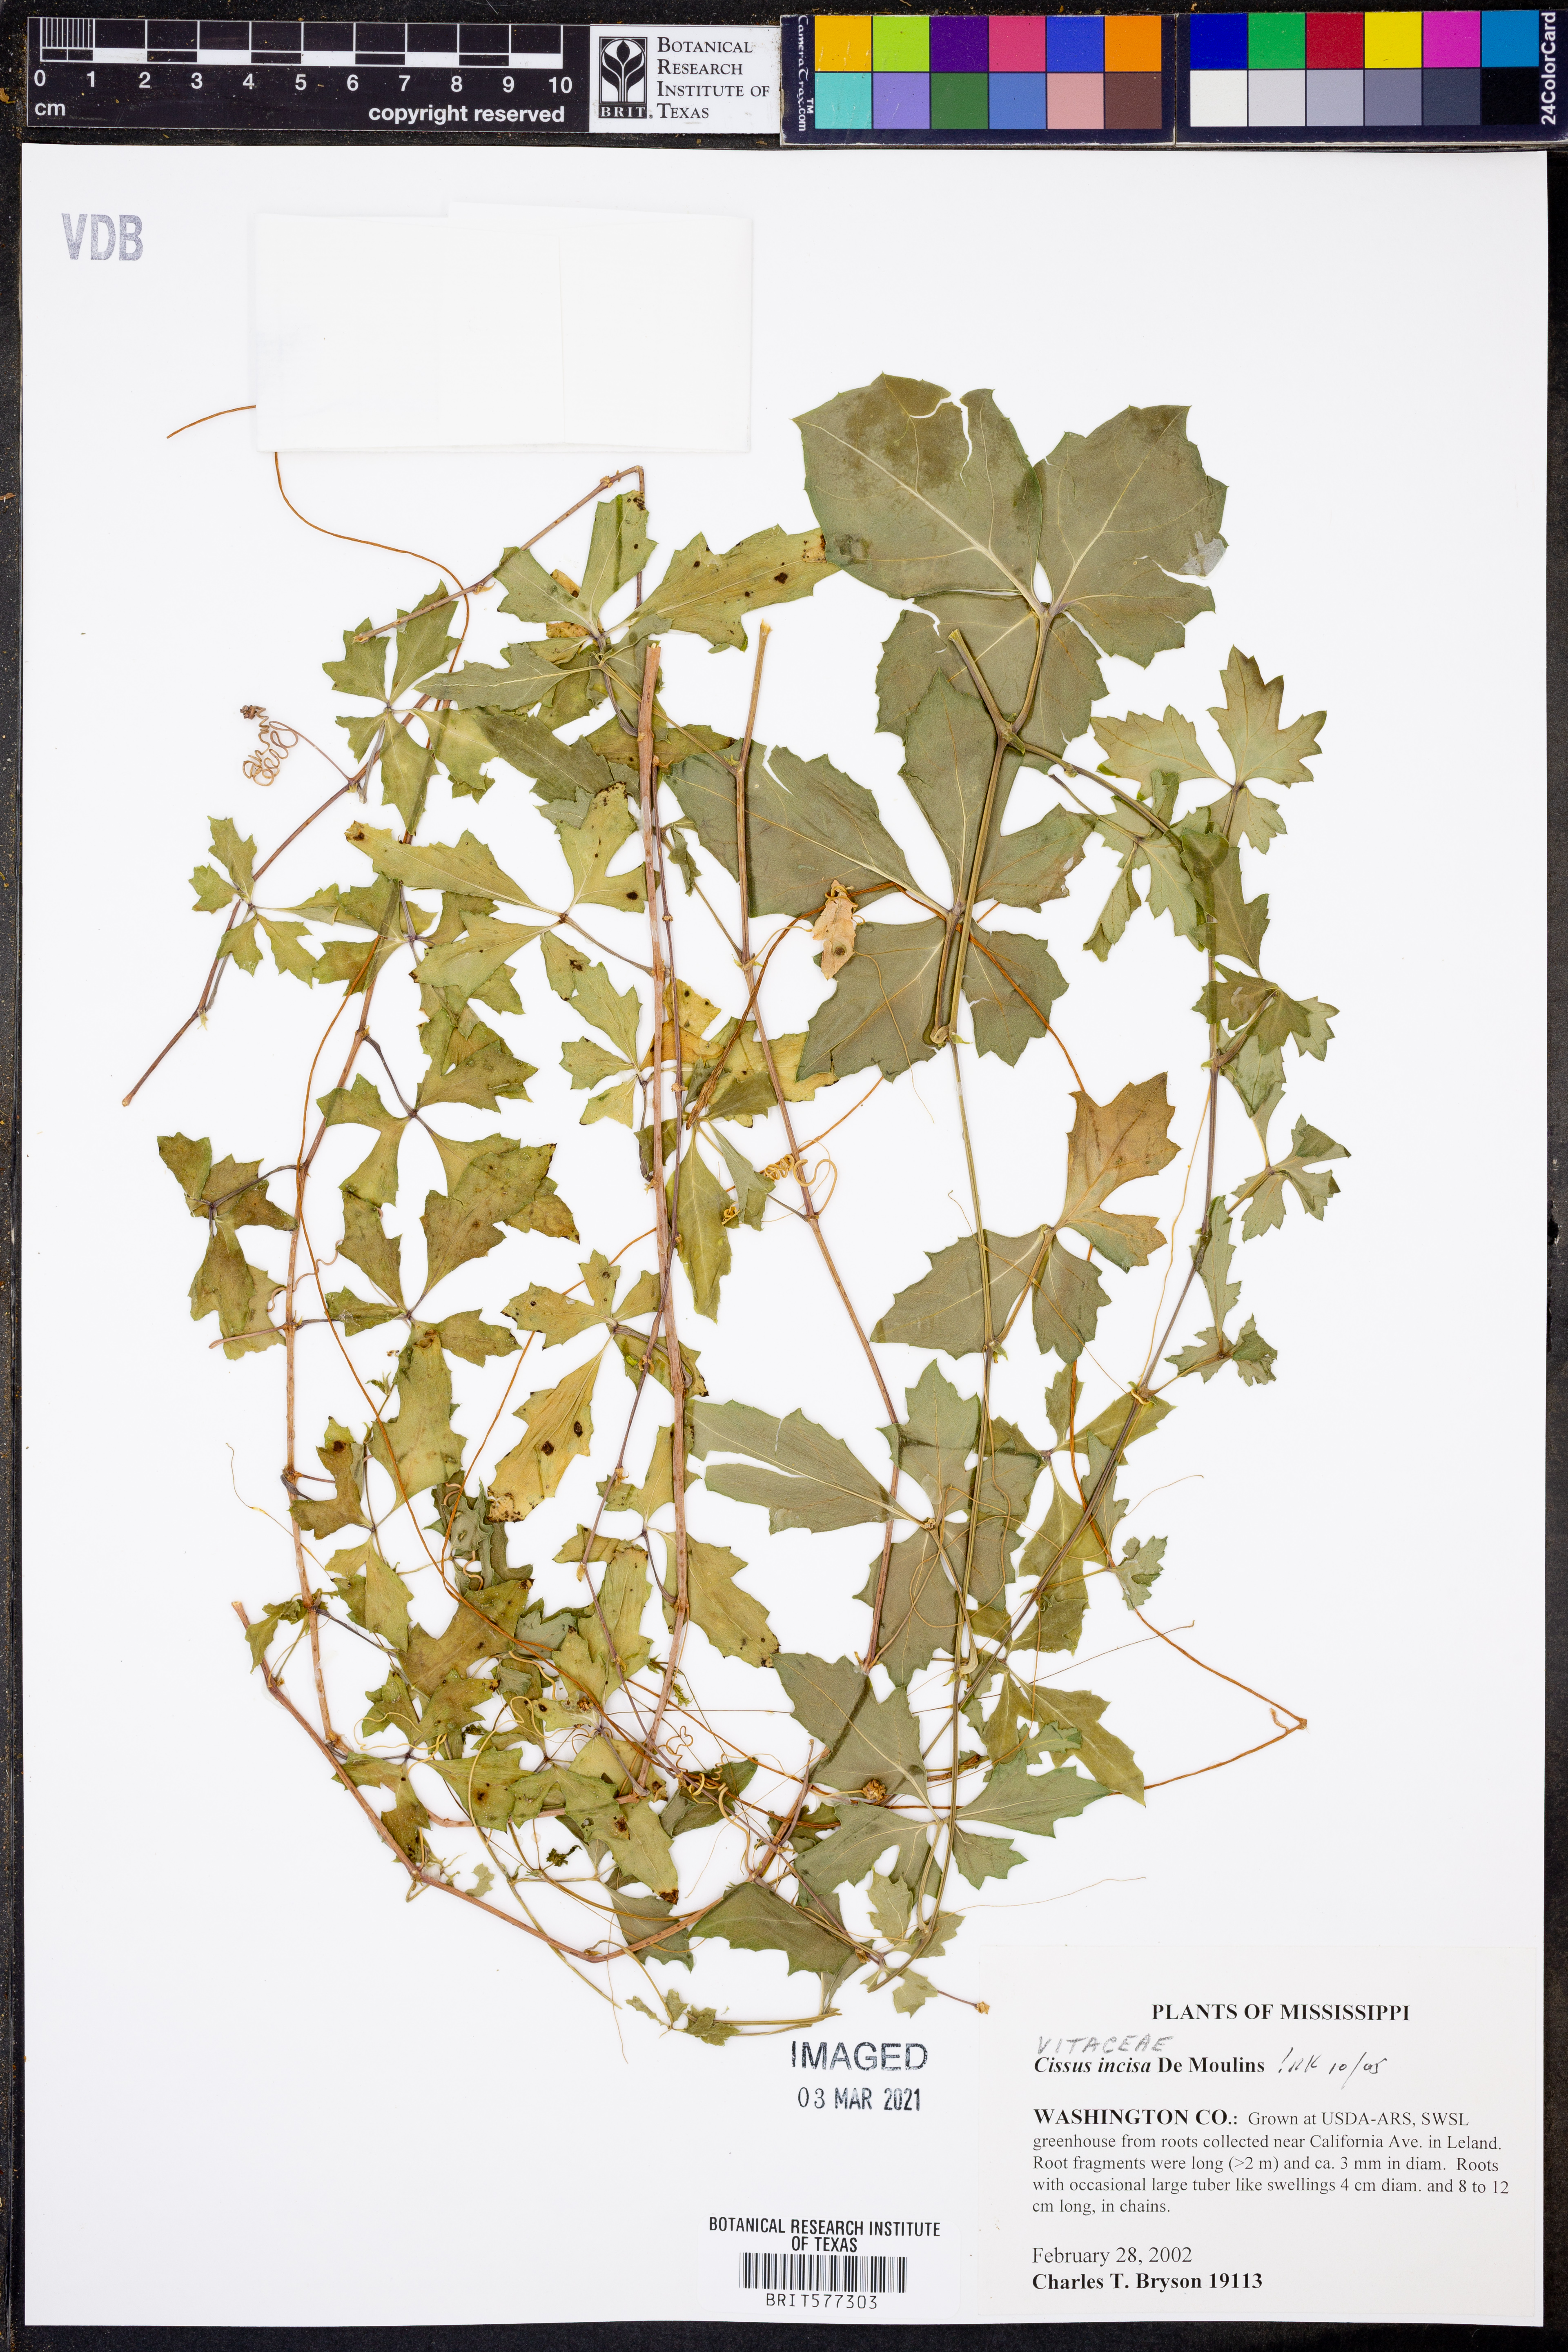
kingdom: Plantae
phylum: Tracheophyta
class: Magnoliopsida
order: Vitales
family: Vitaceae
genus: Cissus
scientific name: Cissus trifoliata
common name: Vine-sorrel
